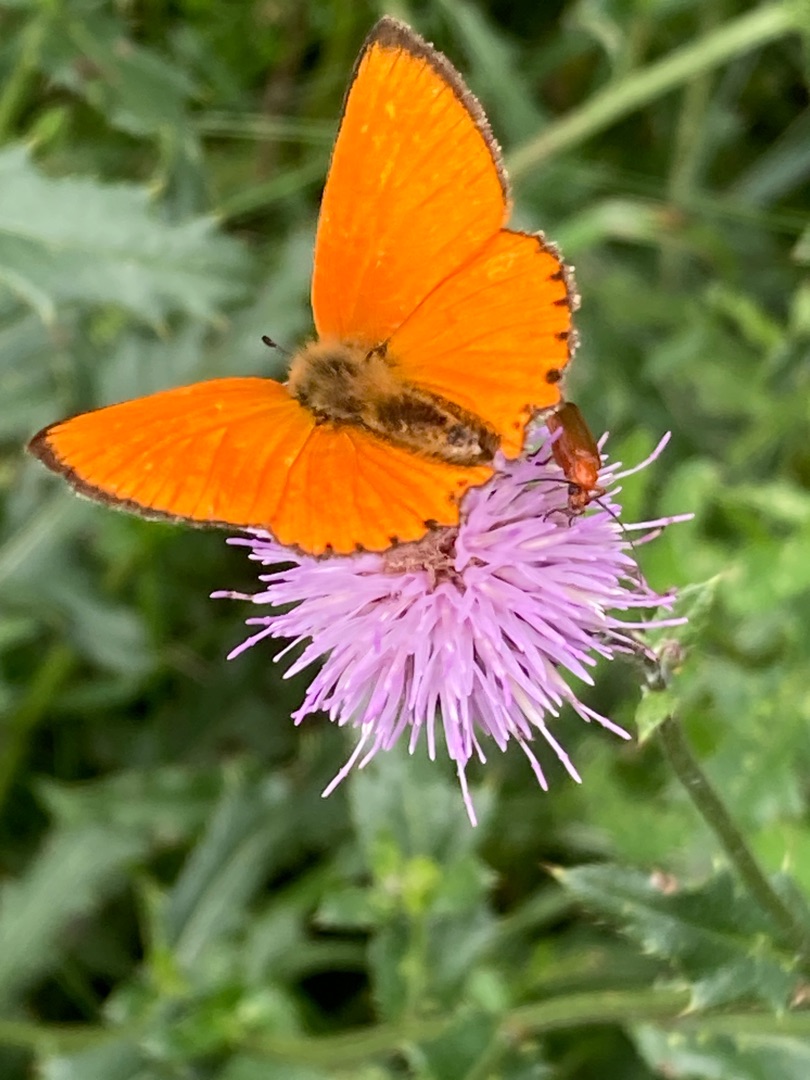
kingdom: Animalia
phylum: Arthropoda
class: Insecta
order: Lepidoptera
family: Lycaenidae
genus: Lycaena
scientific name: Lycaena virgaureae
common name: Dukatsommerfugl
